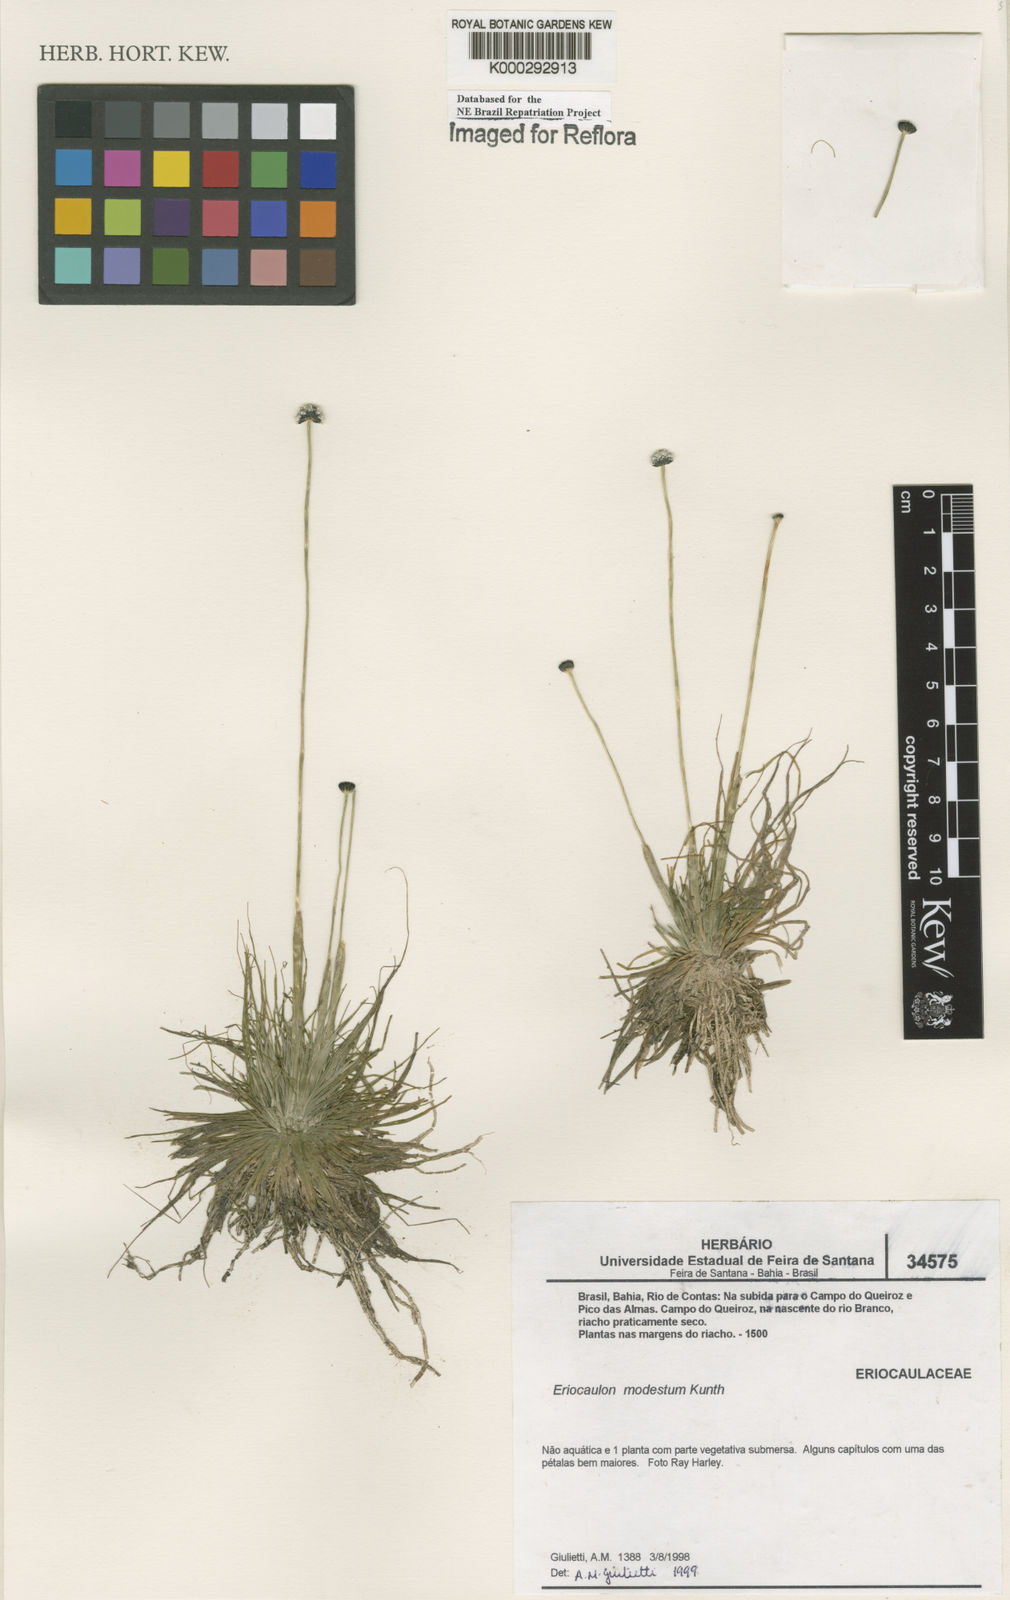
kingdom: Plantae
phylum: Tracheophyta
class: Liliopsida
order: Poales
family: Eriocaulaceae
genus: Eriocaulon
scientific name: Eriocaulon modestum
